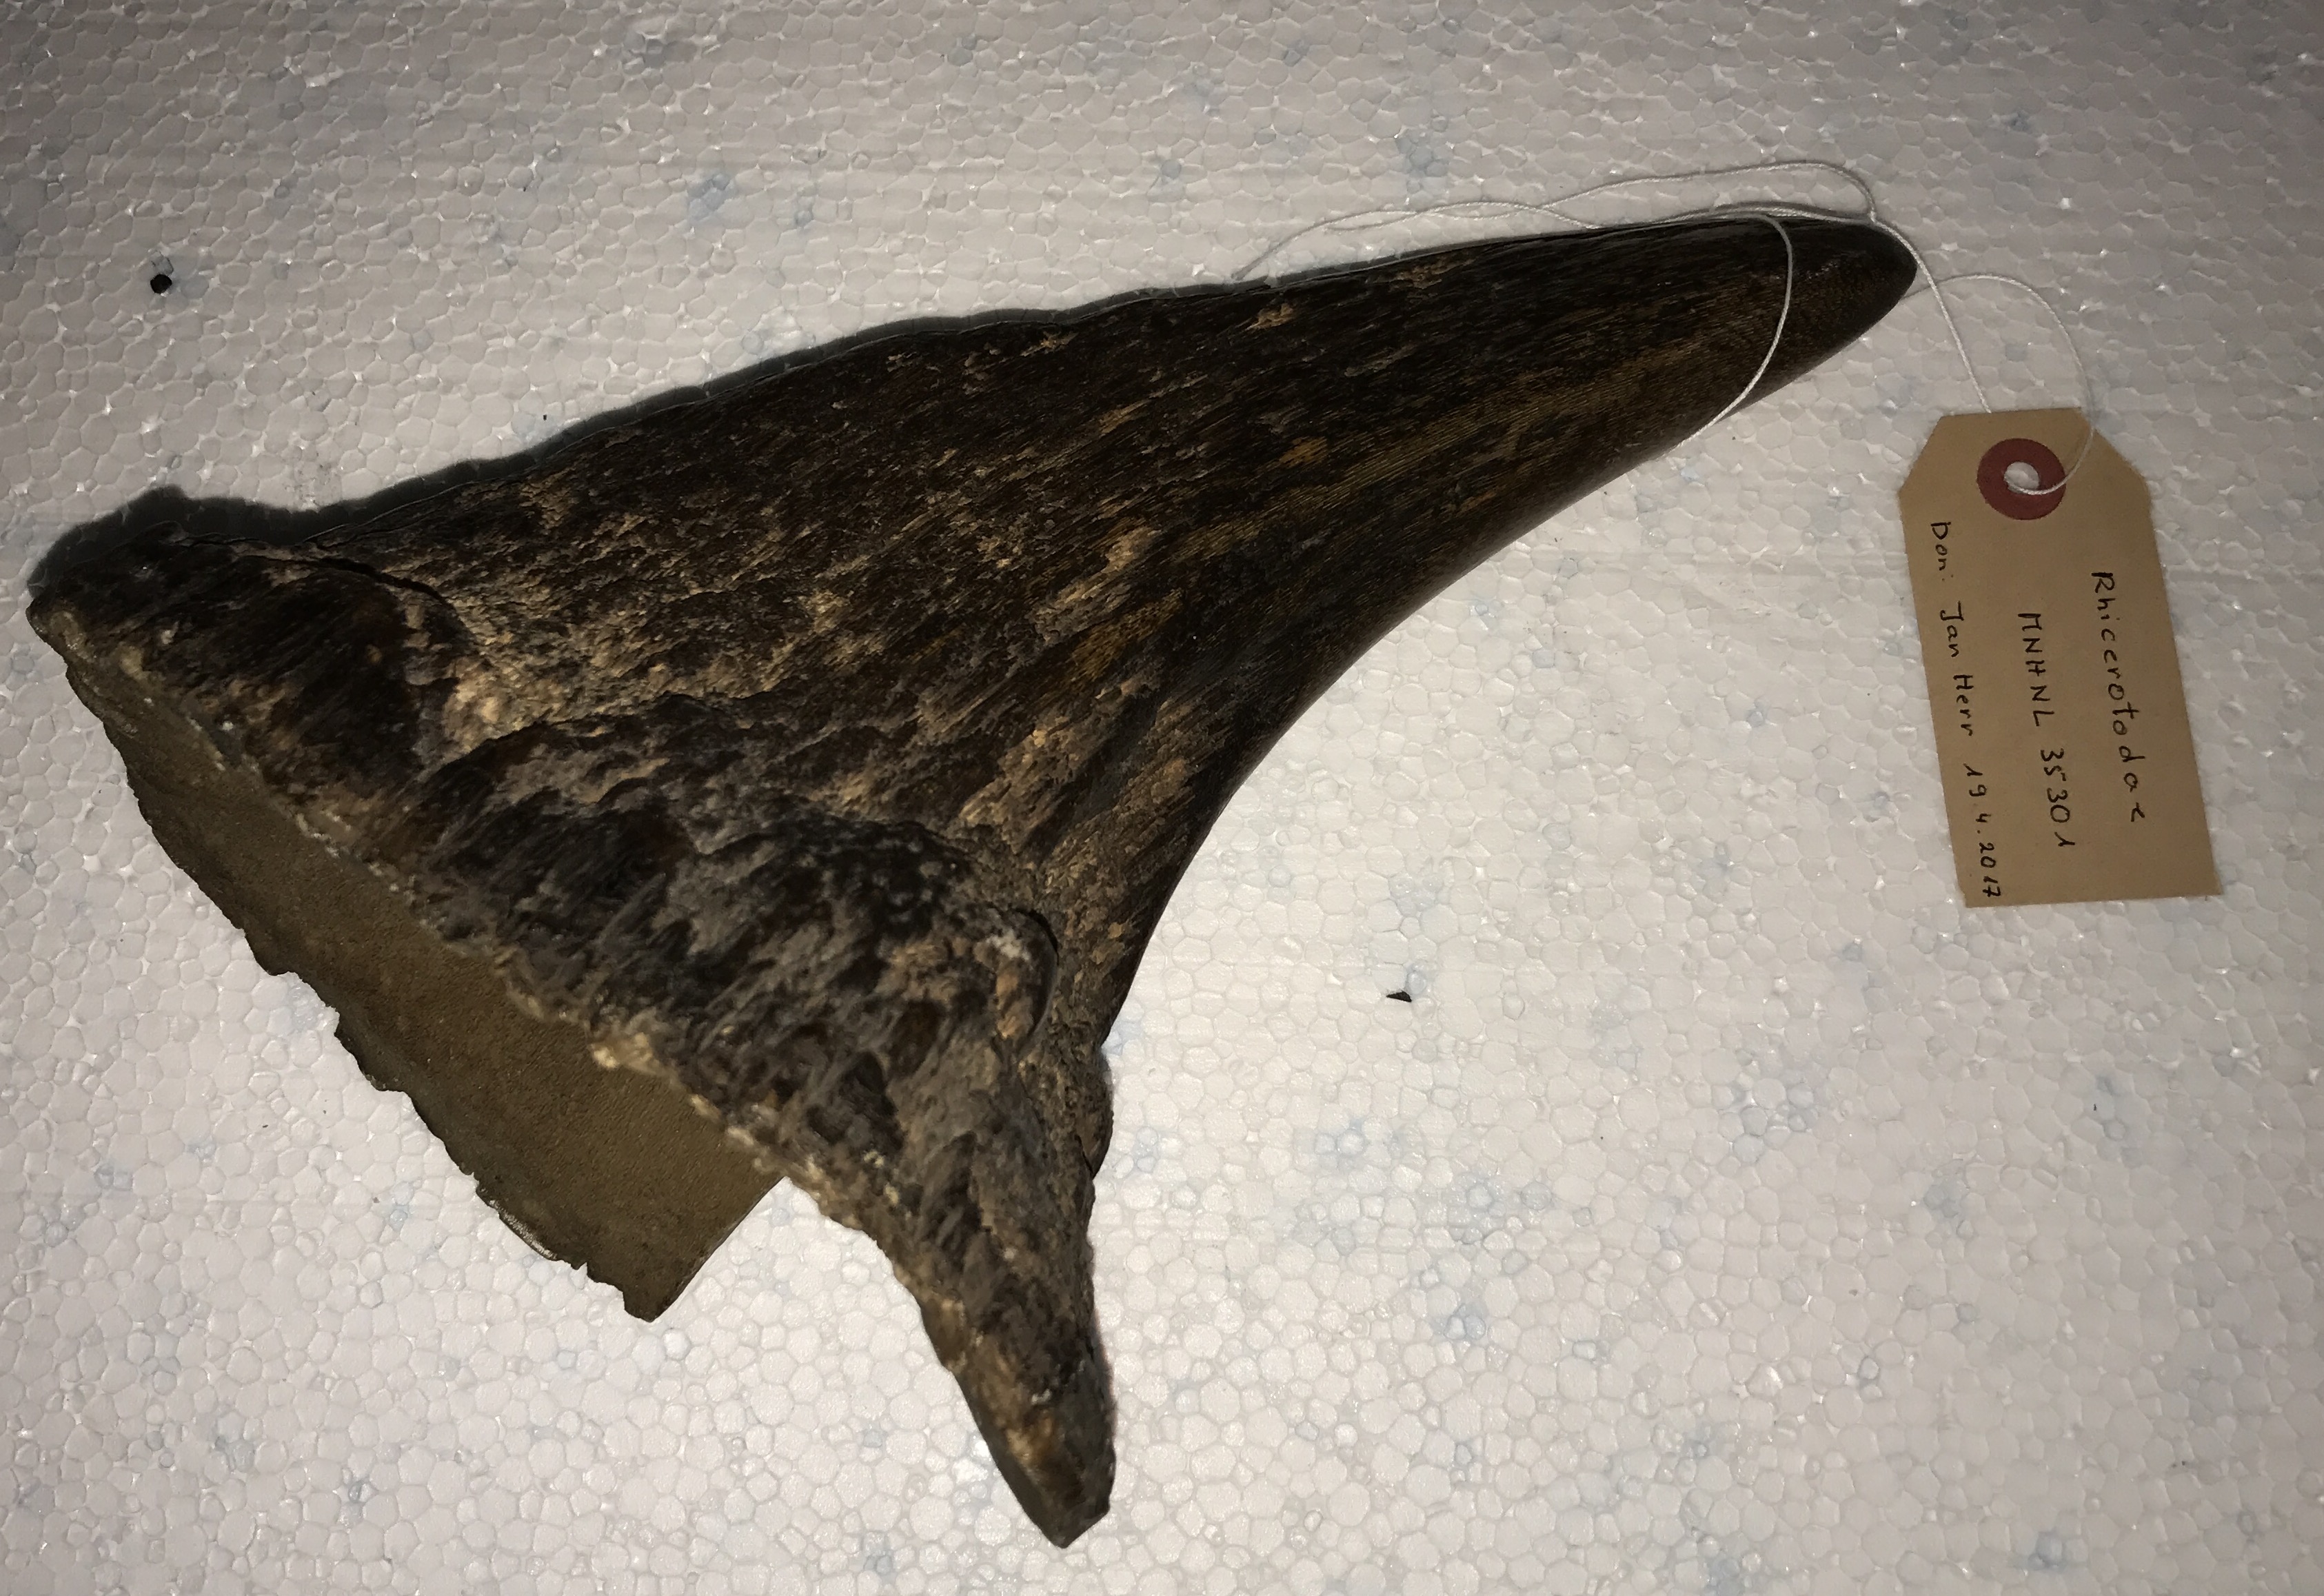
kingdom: Animalia
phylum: Chordata
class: Mammalia
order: Perissodactyla
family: Rhinocerotidae
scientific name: Rhinocerotidae
